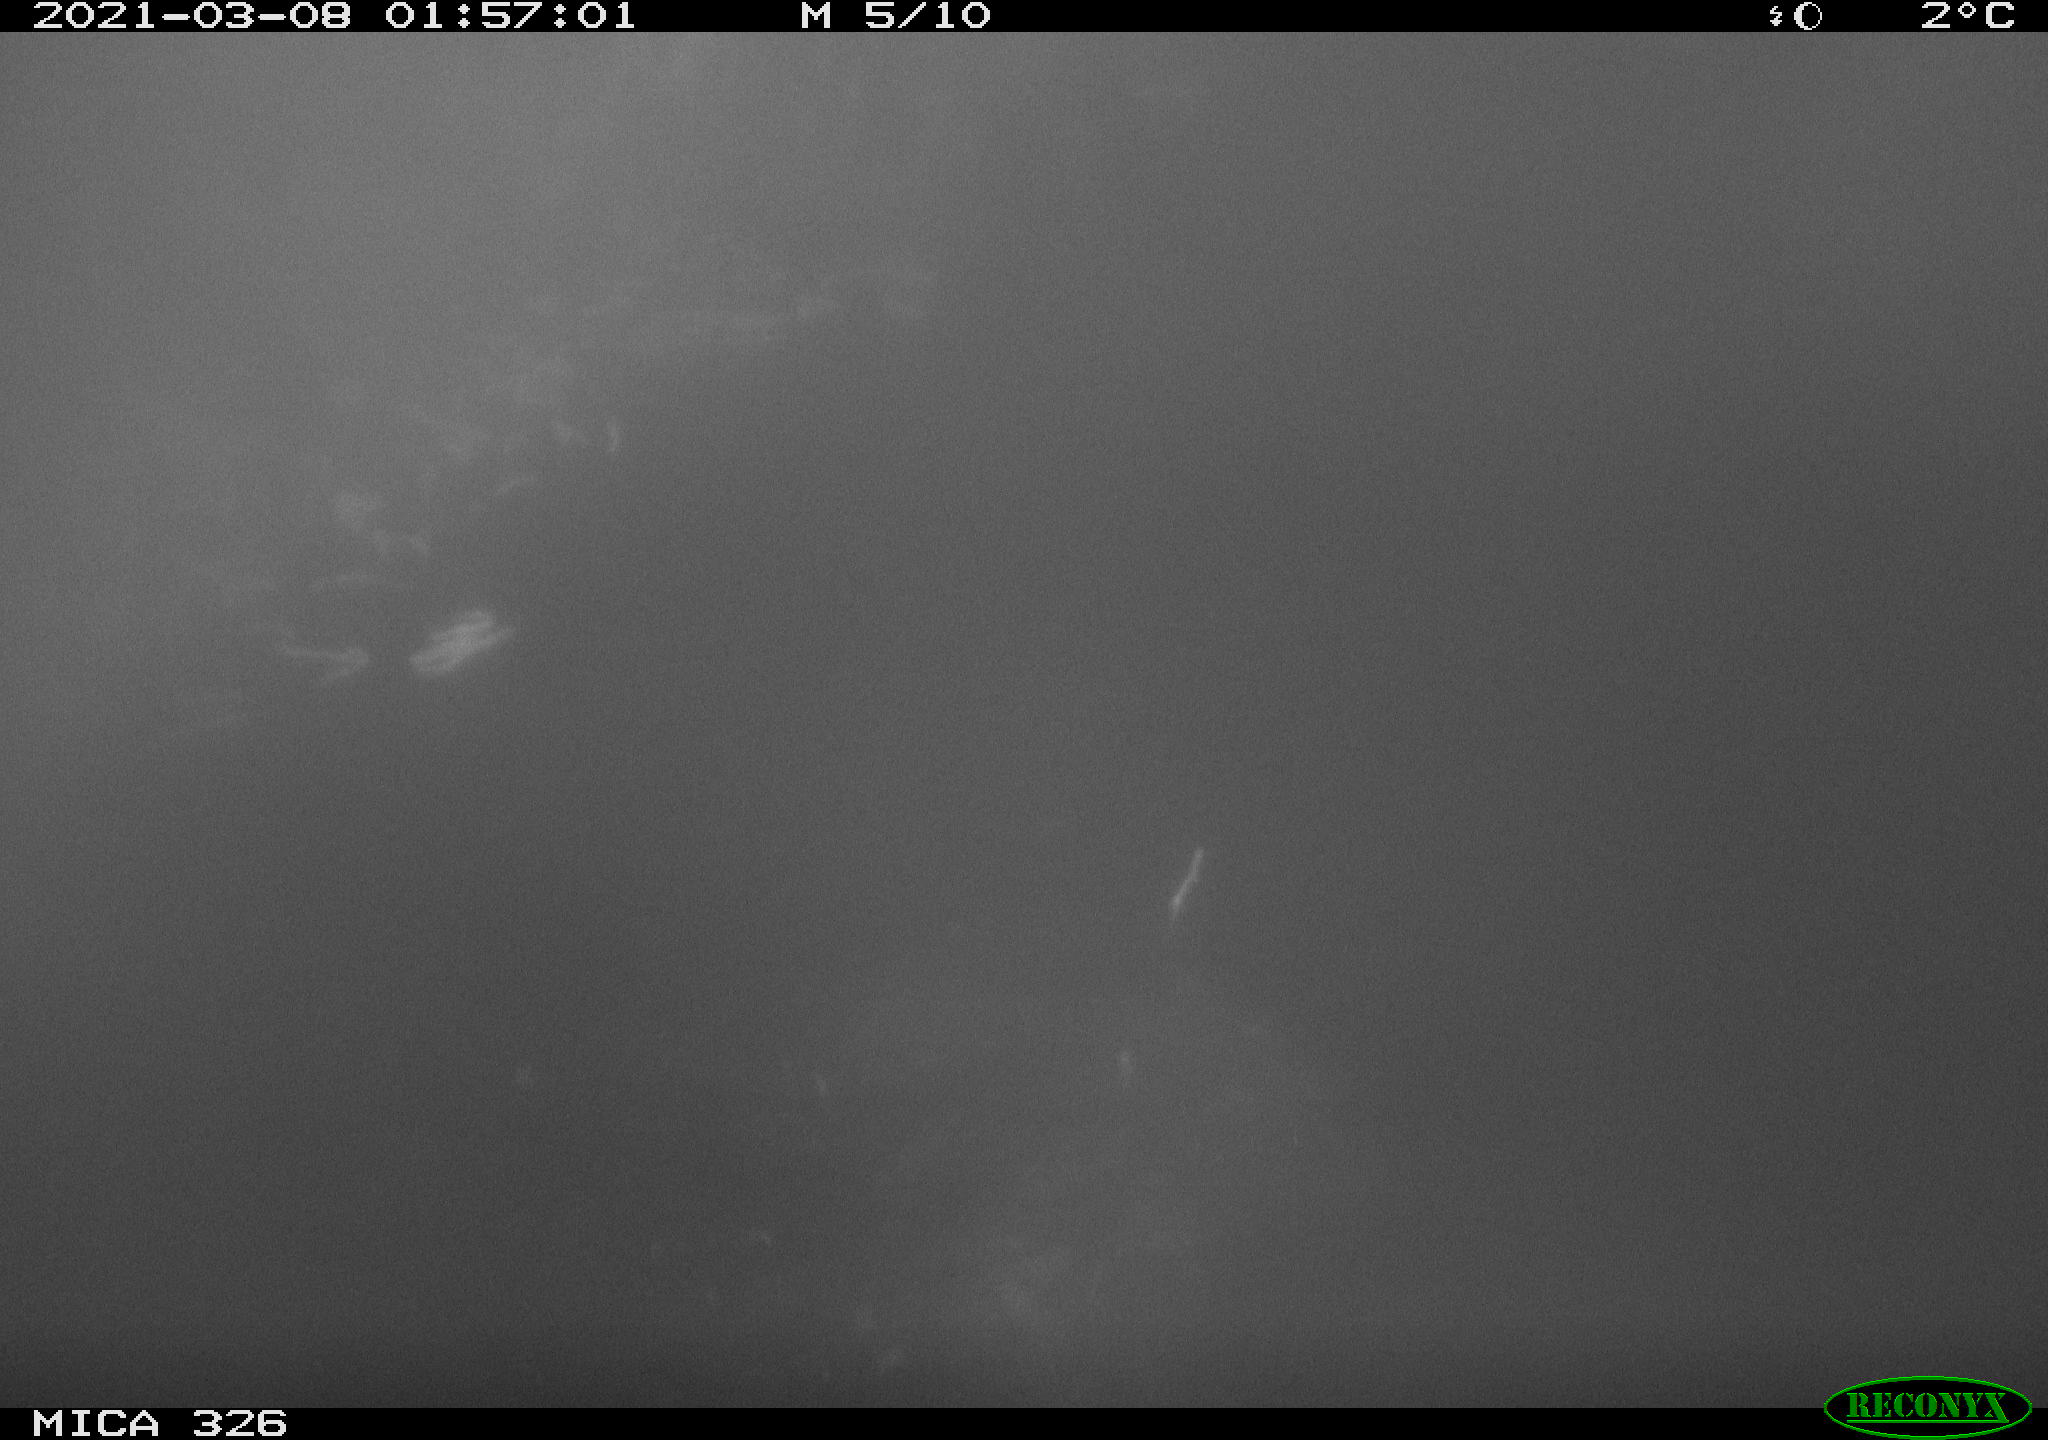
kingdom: Animalia
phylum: Chordata
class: Mammalia
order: Carnivora
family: Mustelidae
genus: Lutra
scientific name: Lutra lutra
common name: European otter
